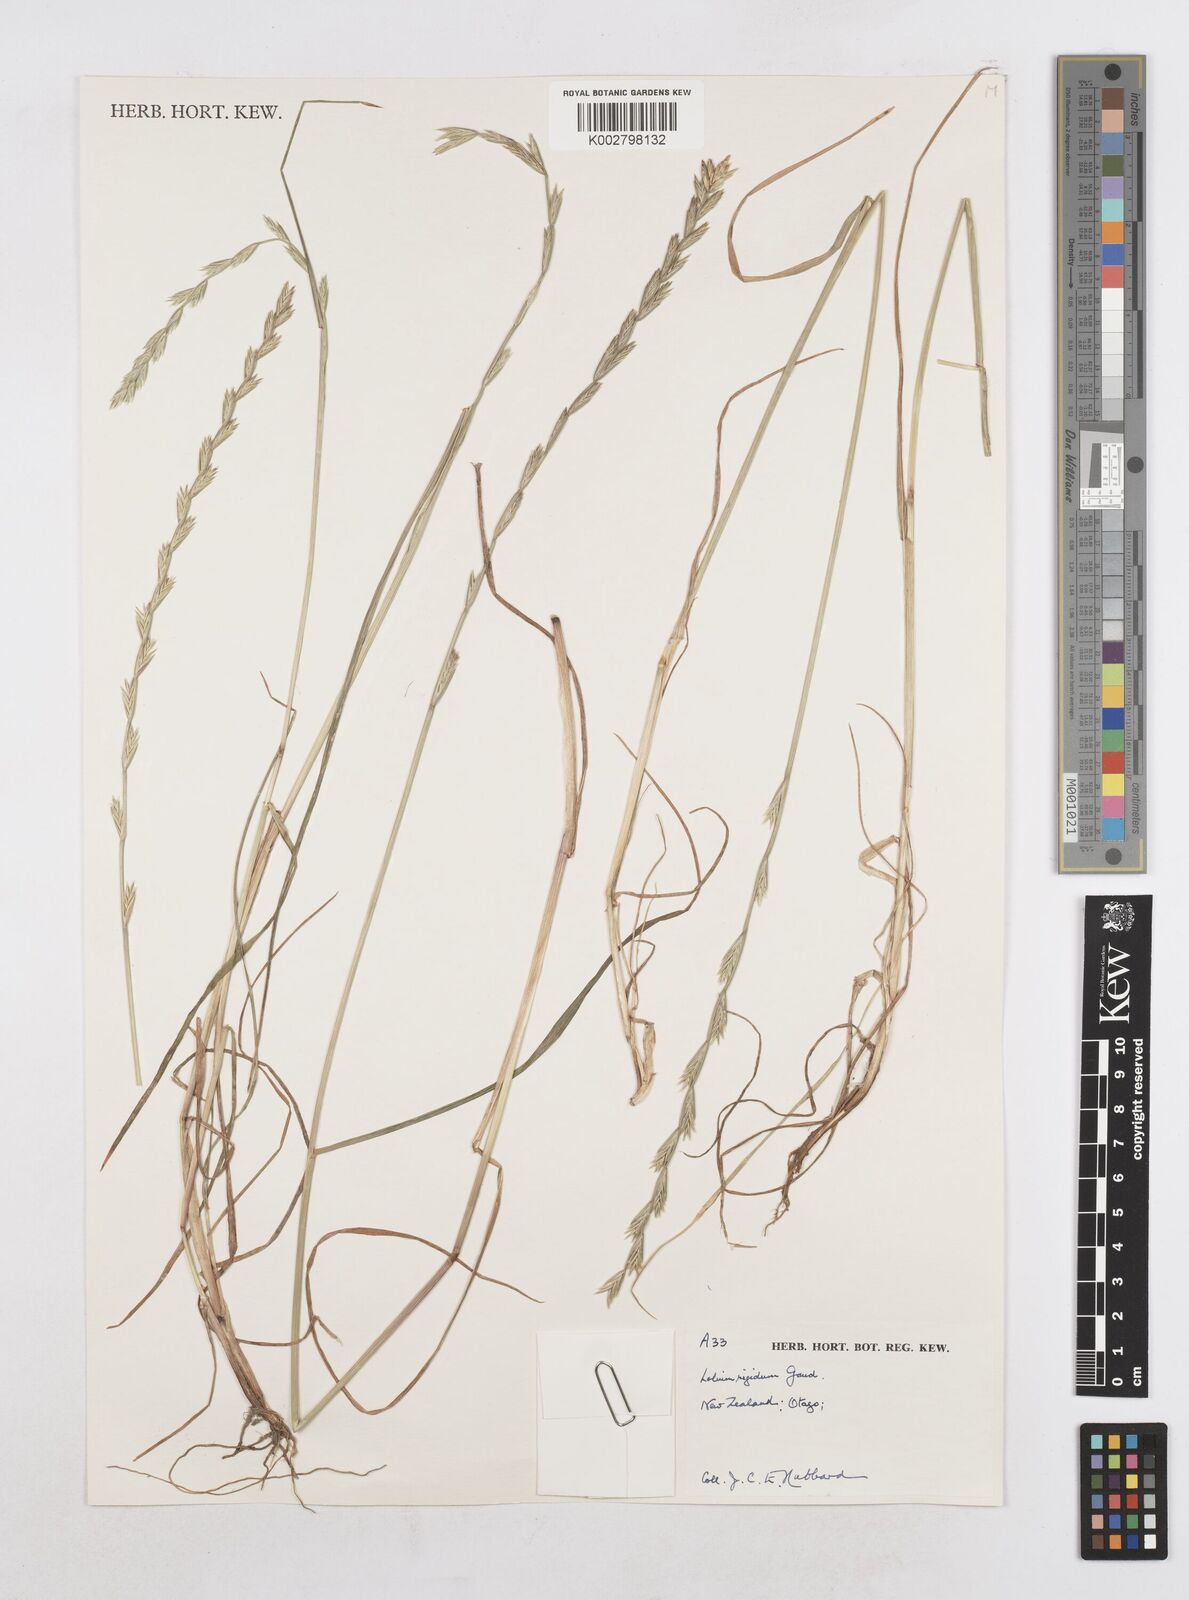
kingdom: Plantae
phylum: Tracheophyta
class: Liliopsida
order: Poales
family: Poaceae
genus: Lolium
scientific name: Lolium rigidum
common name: Wimmera ryegrass
